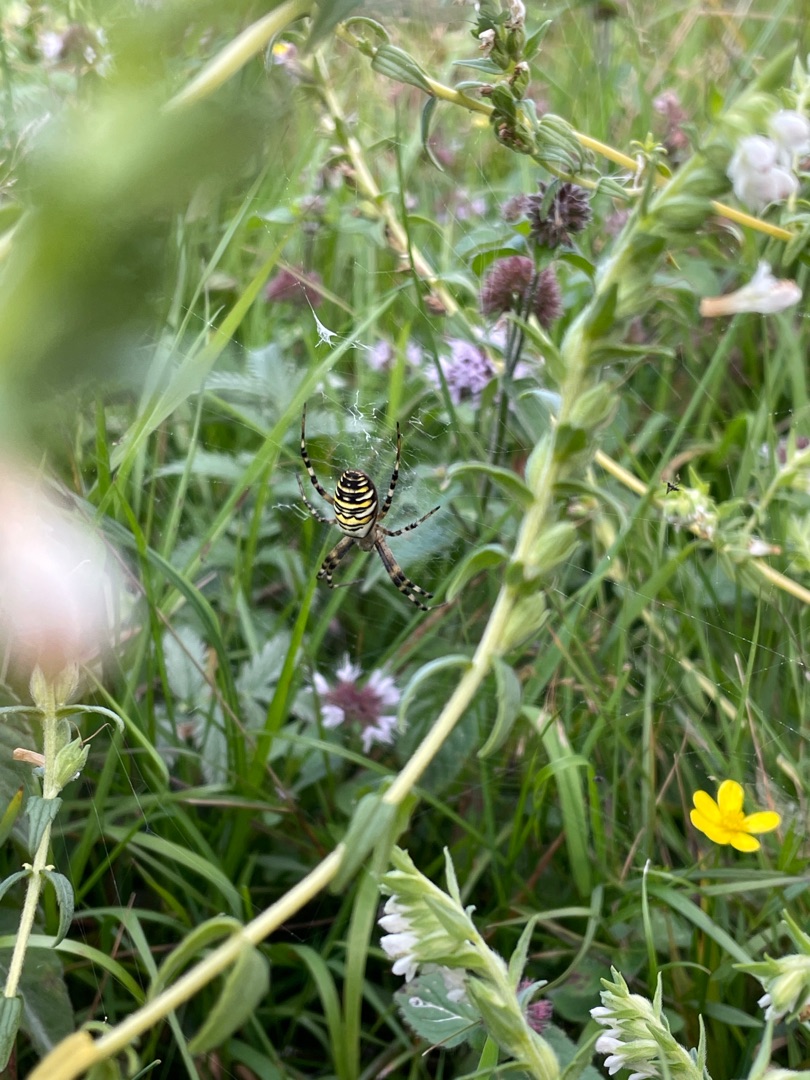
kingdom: Animalia
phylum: Arthropoda
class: Arachnida
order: Araneae
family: Araneidae
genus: Argiope
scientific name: Argiope bruennichi
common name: Hvepseedderkop
